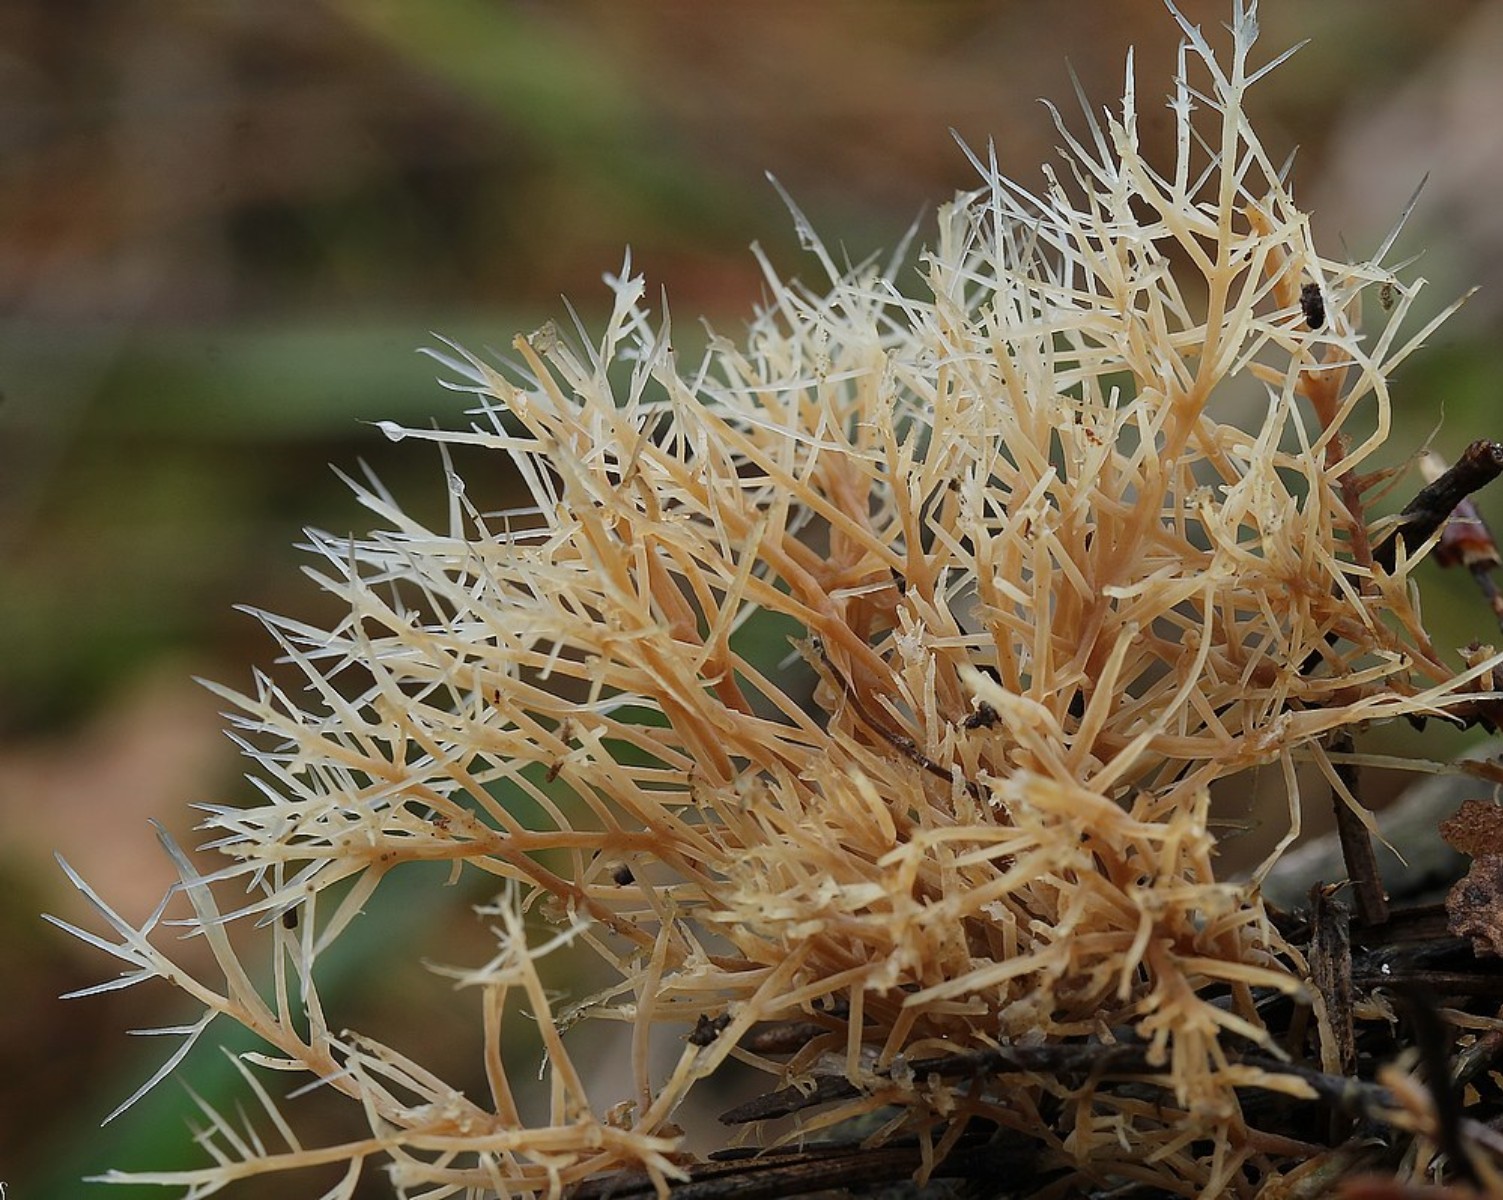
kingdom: Fungi
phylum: Basidiomycota
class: Agaricomycetes
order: Agaricales
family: Pterulaceae
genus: Pterula
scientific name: Pterula multifida
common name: busket fjerkølle
